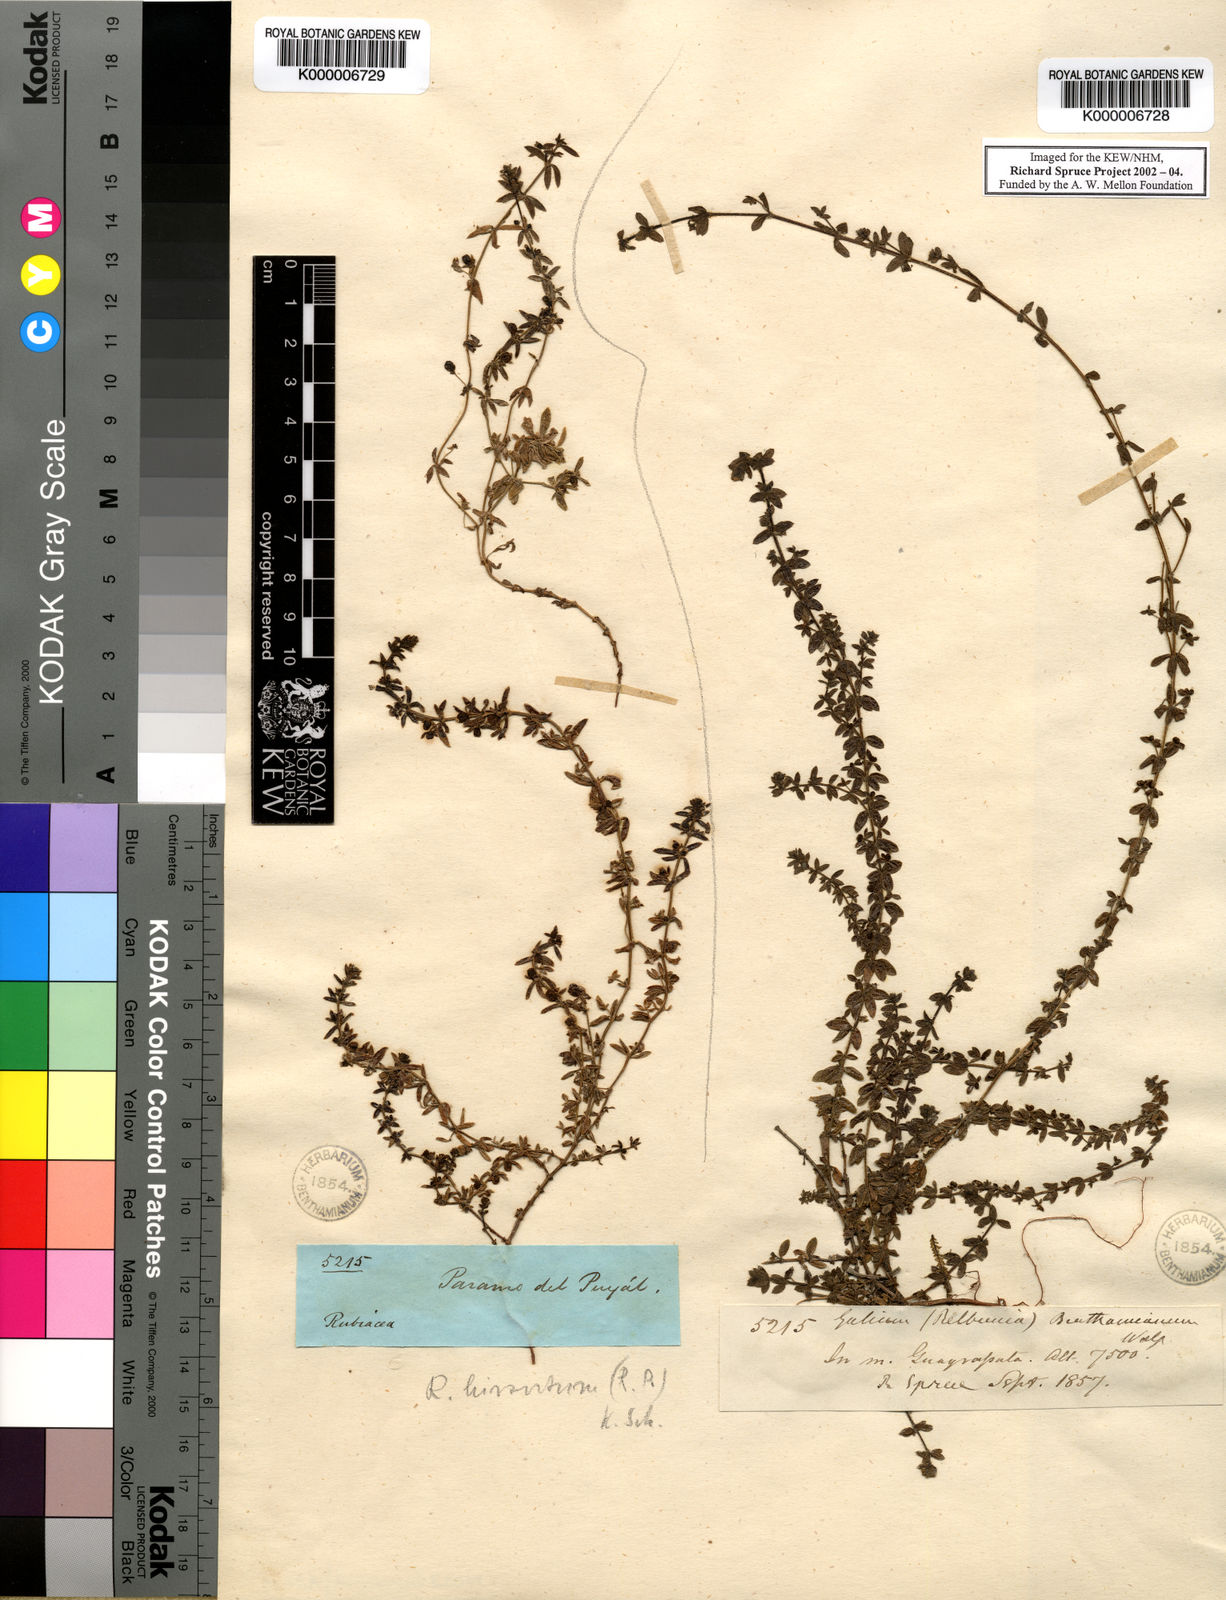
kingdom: Plantae
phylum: Tracheophyta
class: Magnoliopsida
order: Gentianales
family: Rubiaceae
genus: Galium
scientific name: Galium corymbosum
